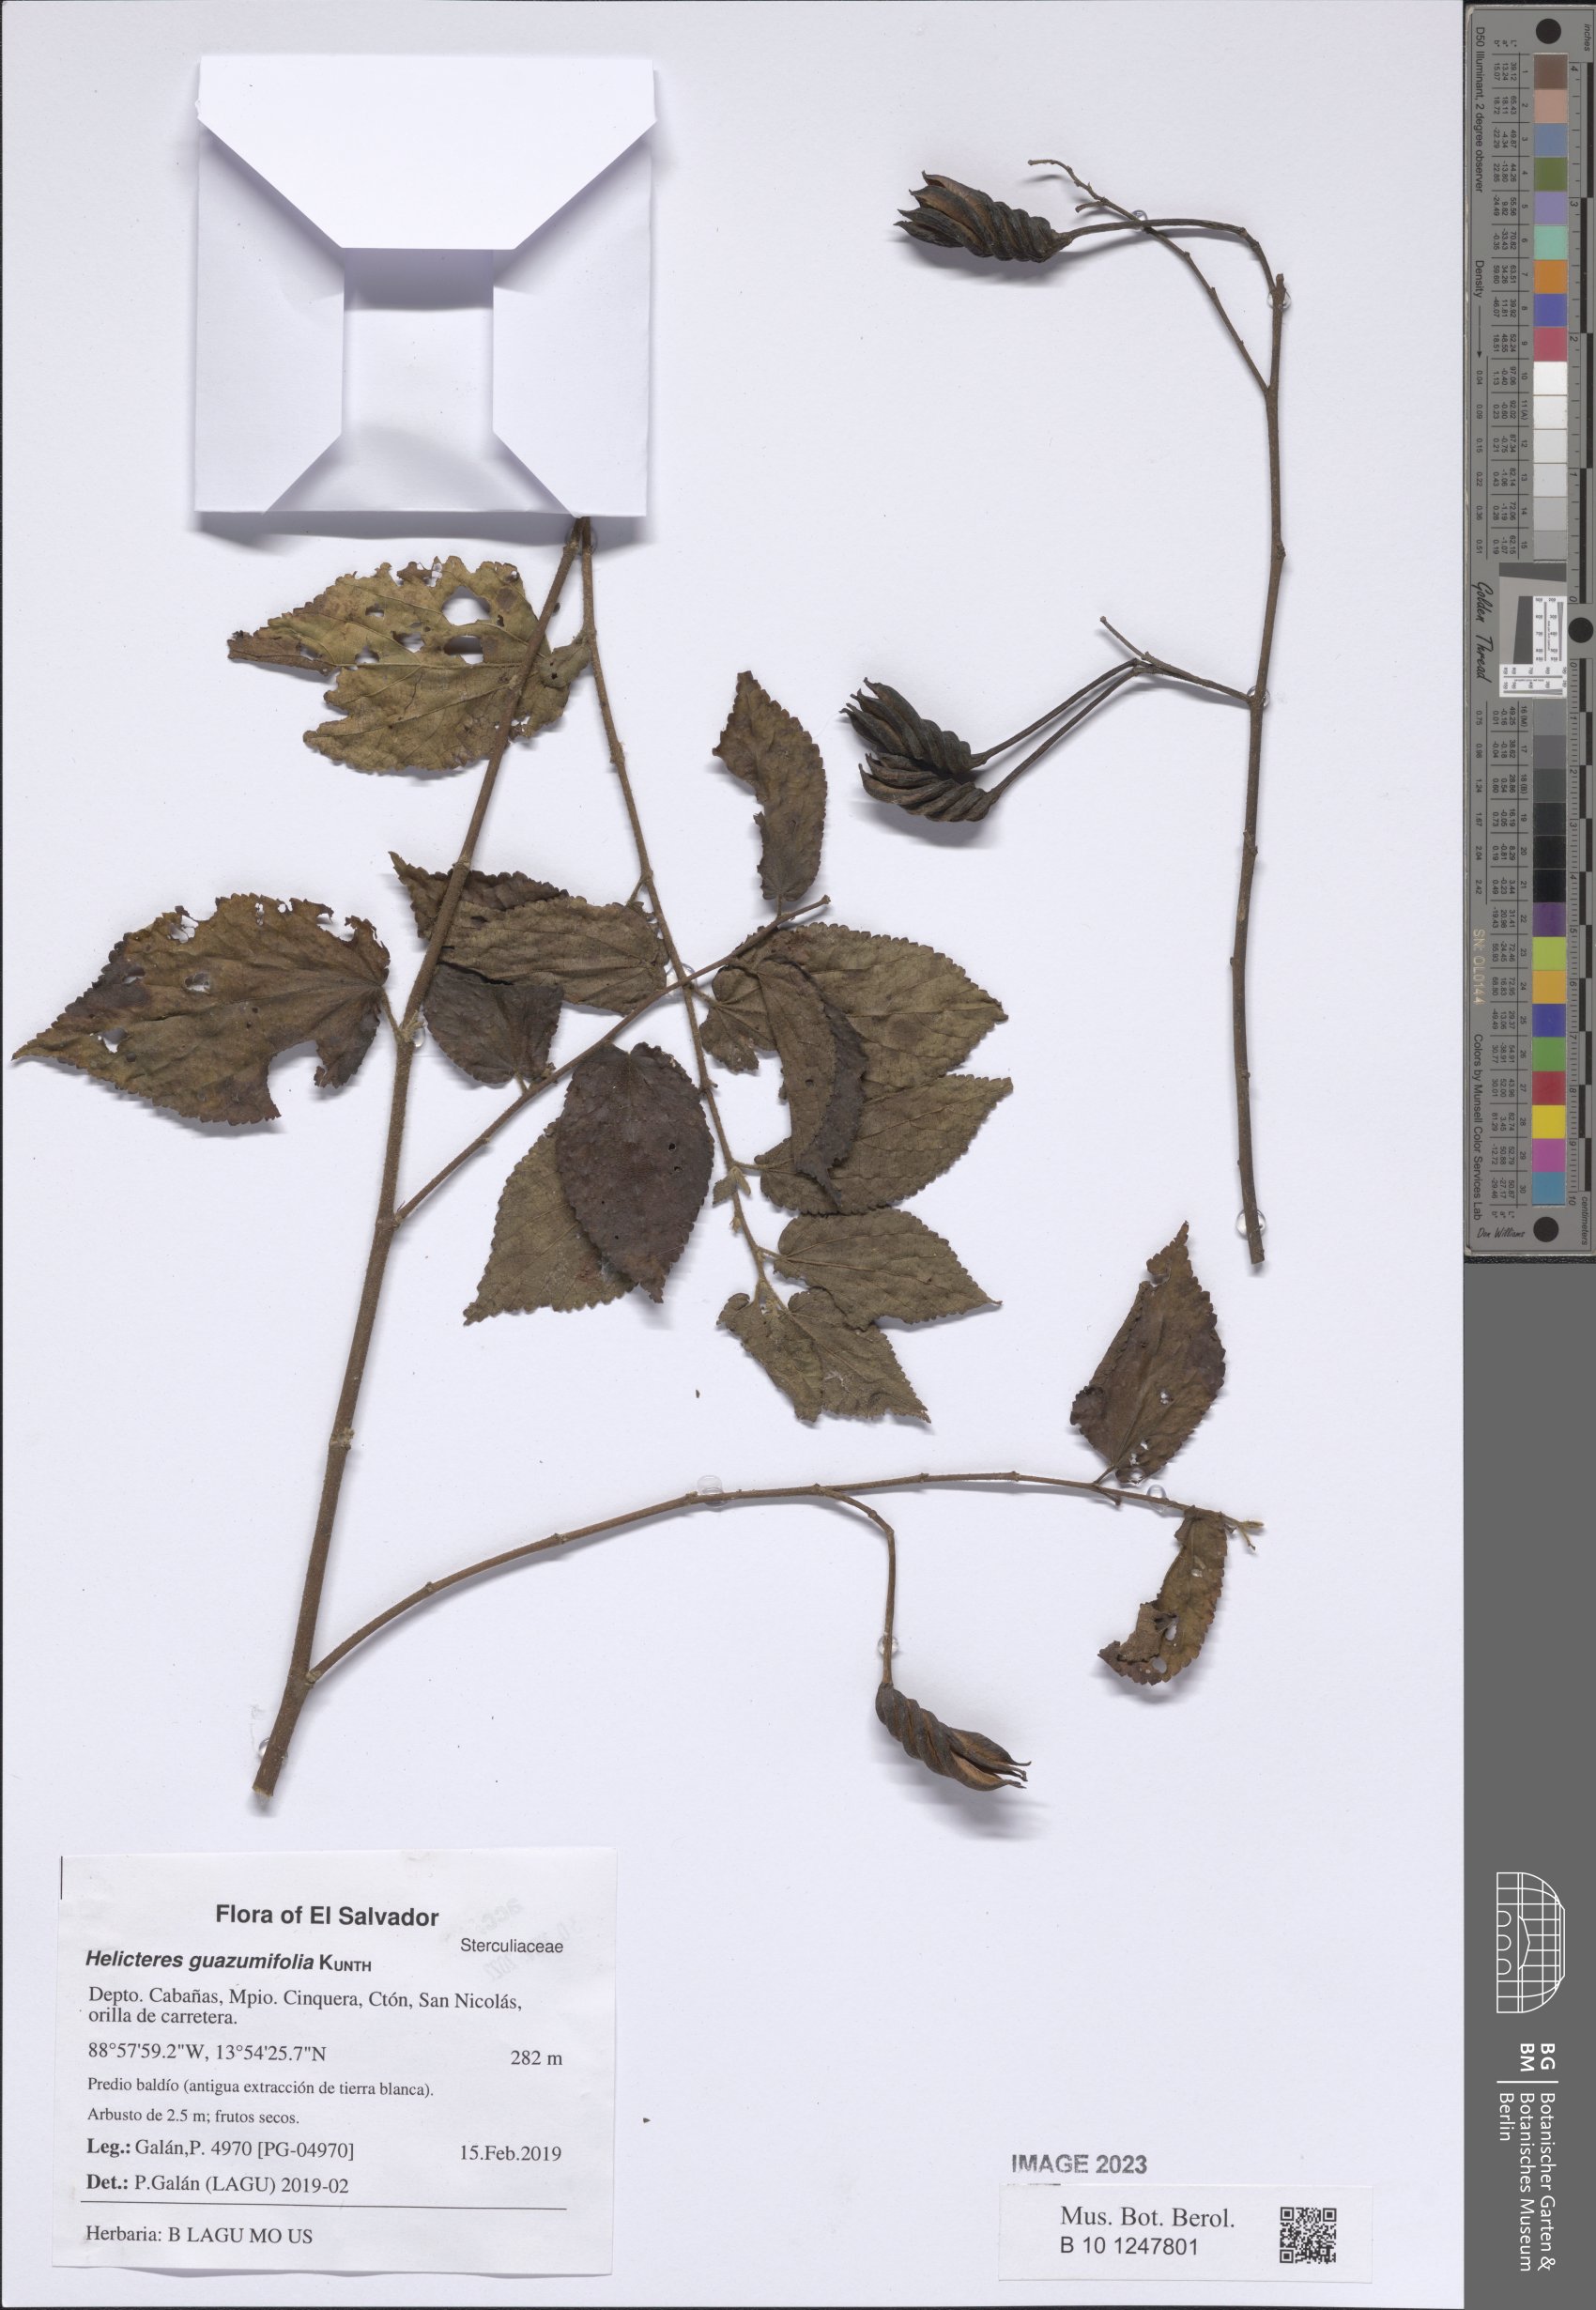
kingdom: Plantae
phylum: Tracheophyta
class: Magnoliopsida
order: Malvales
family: Malvaceae
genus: Helicteres
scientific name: Helicteres guazumifolia
